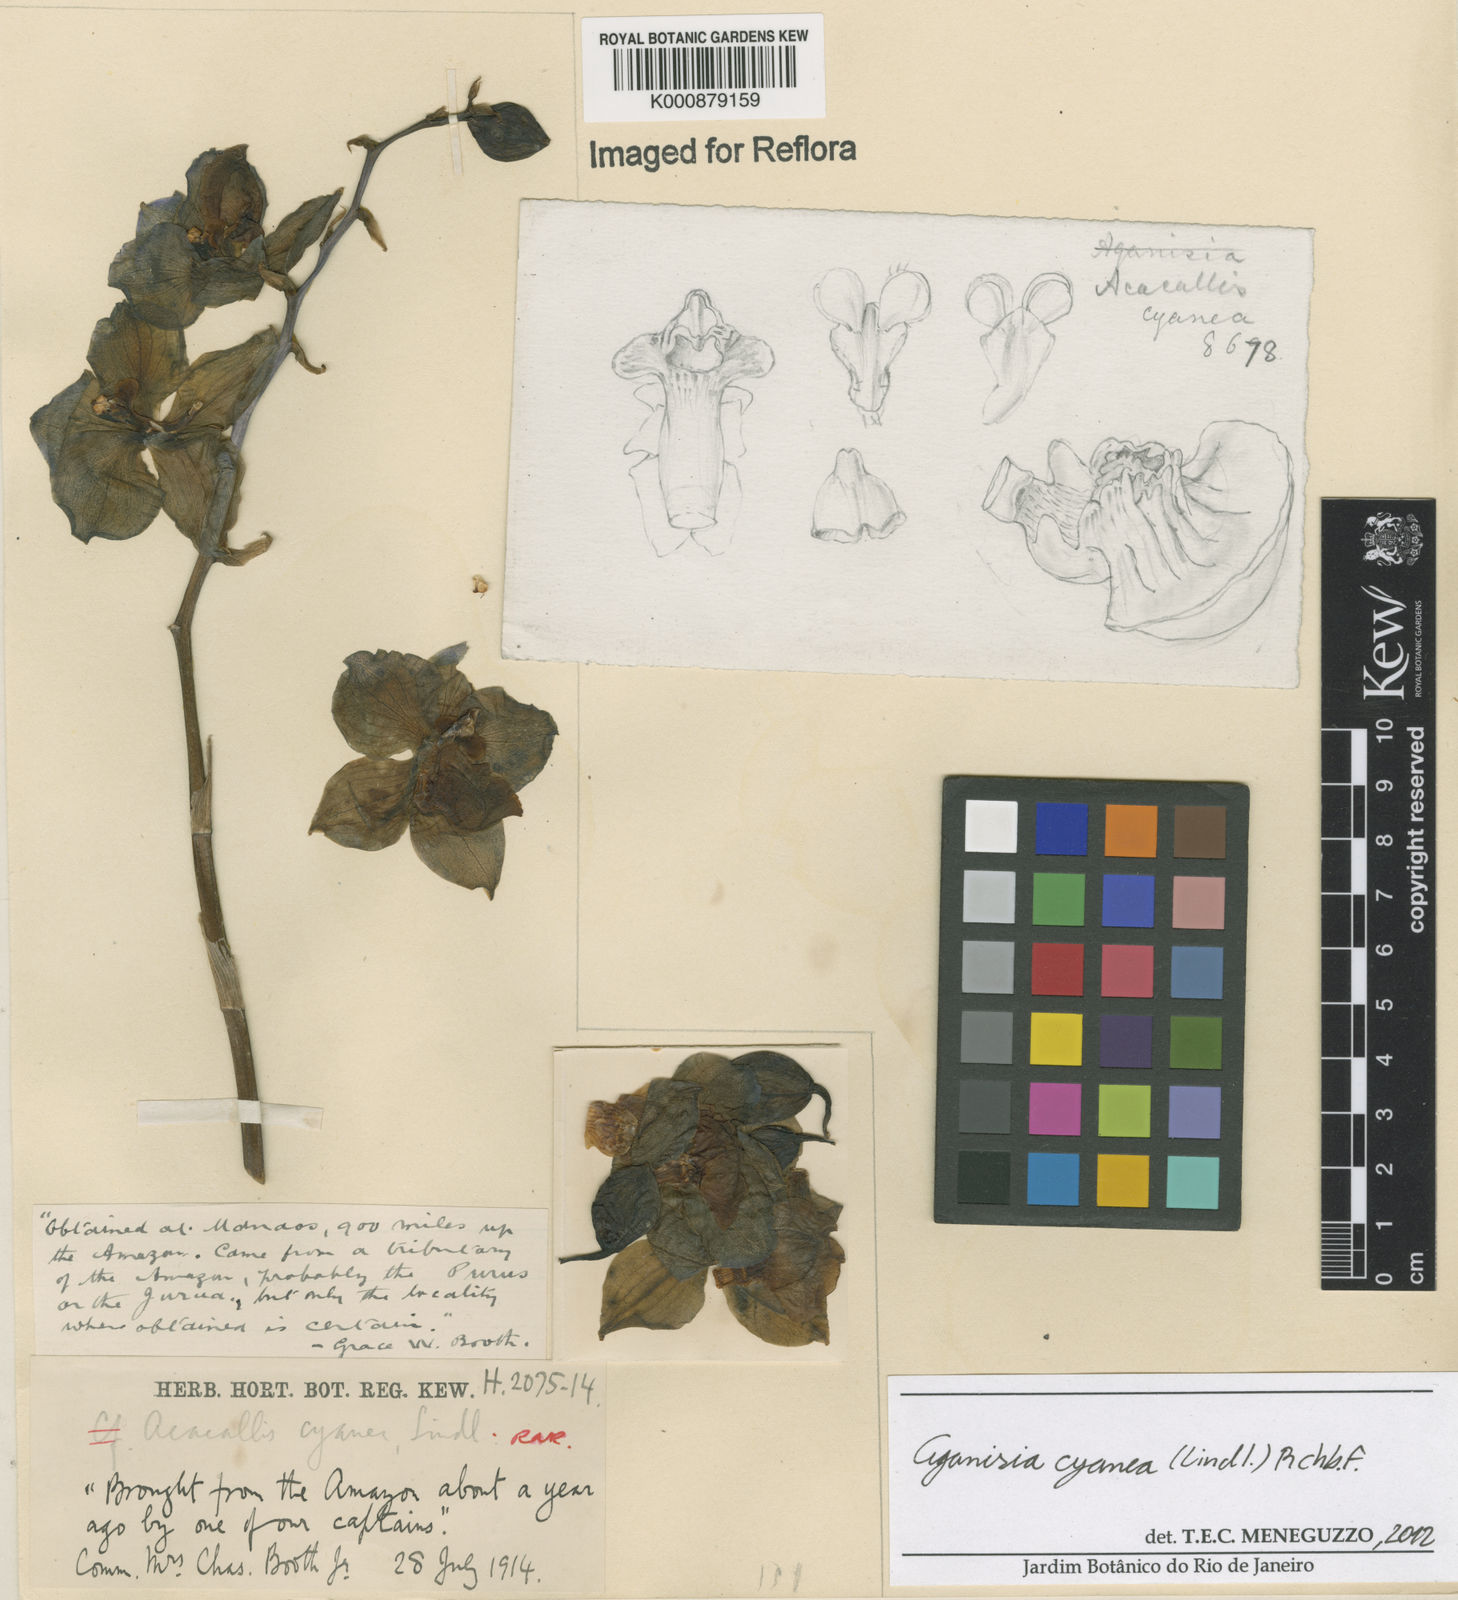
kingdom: Plantae
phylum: Tracheophyta
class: Liliopsida
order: Asparagales
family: Orchidaceae
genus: Aganisia
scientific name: Aganisia cyanea
